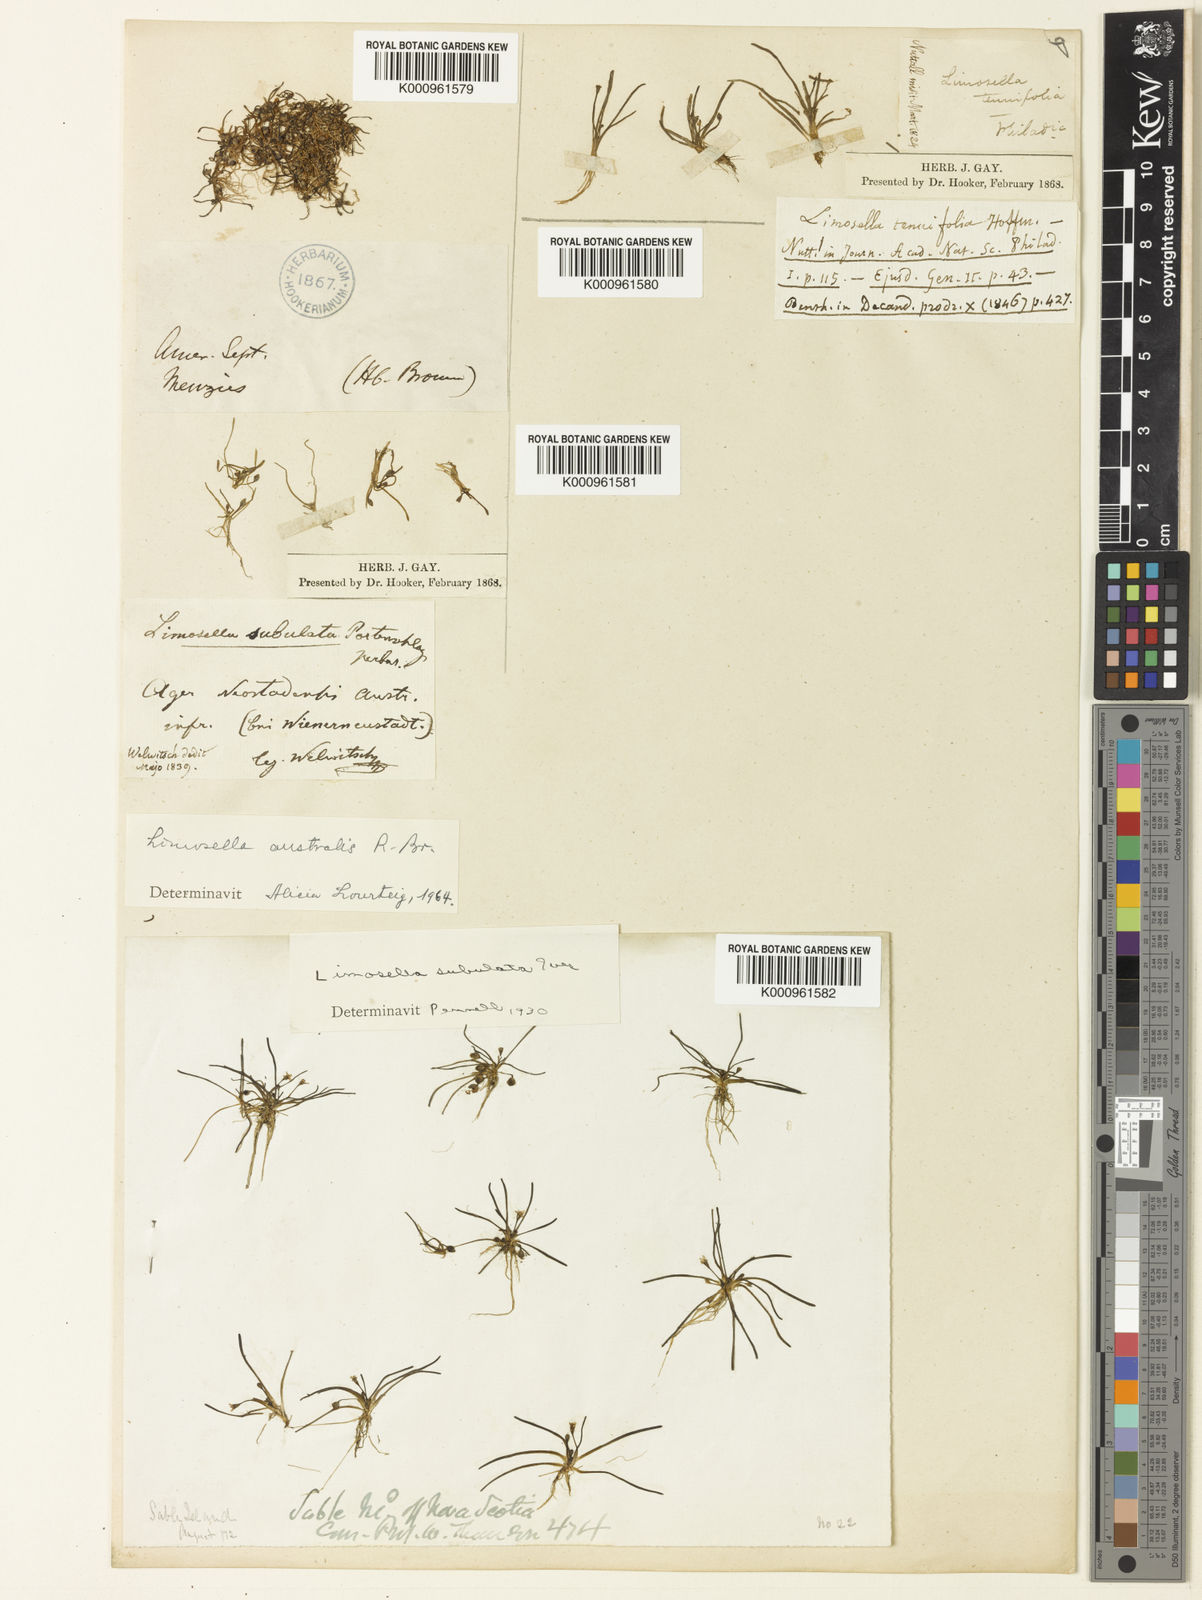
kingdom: Plantae
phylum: Tracheophyta
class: Magnoliopsida
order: Lamiales
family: Scrophulariaceae
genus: Limosella
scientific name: Limosella australis
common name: Welsh mudwort
